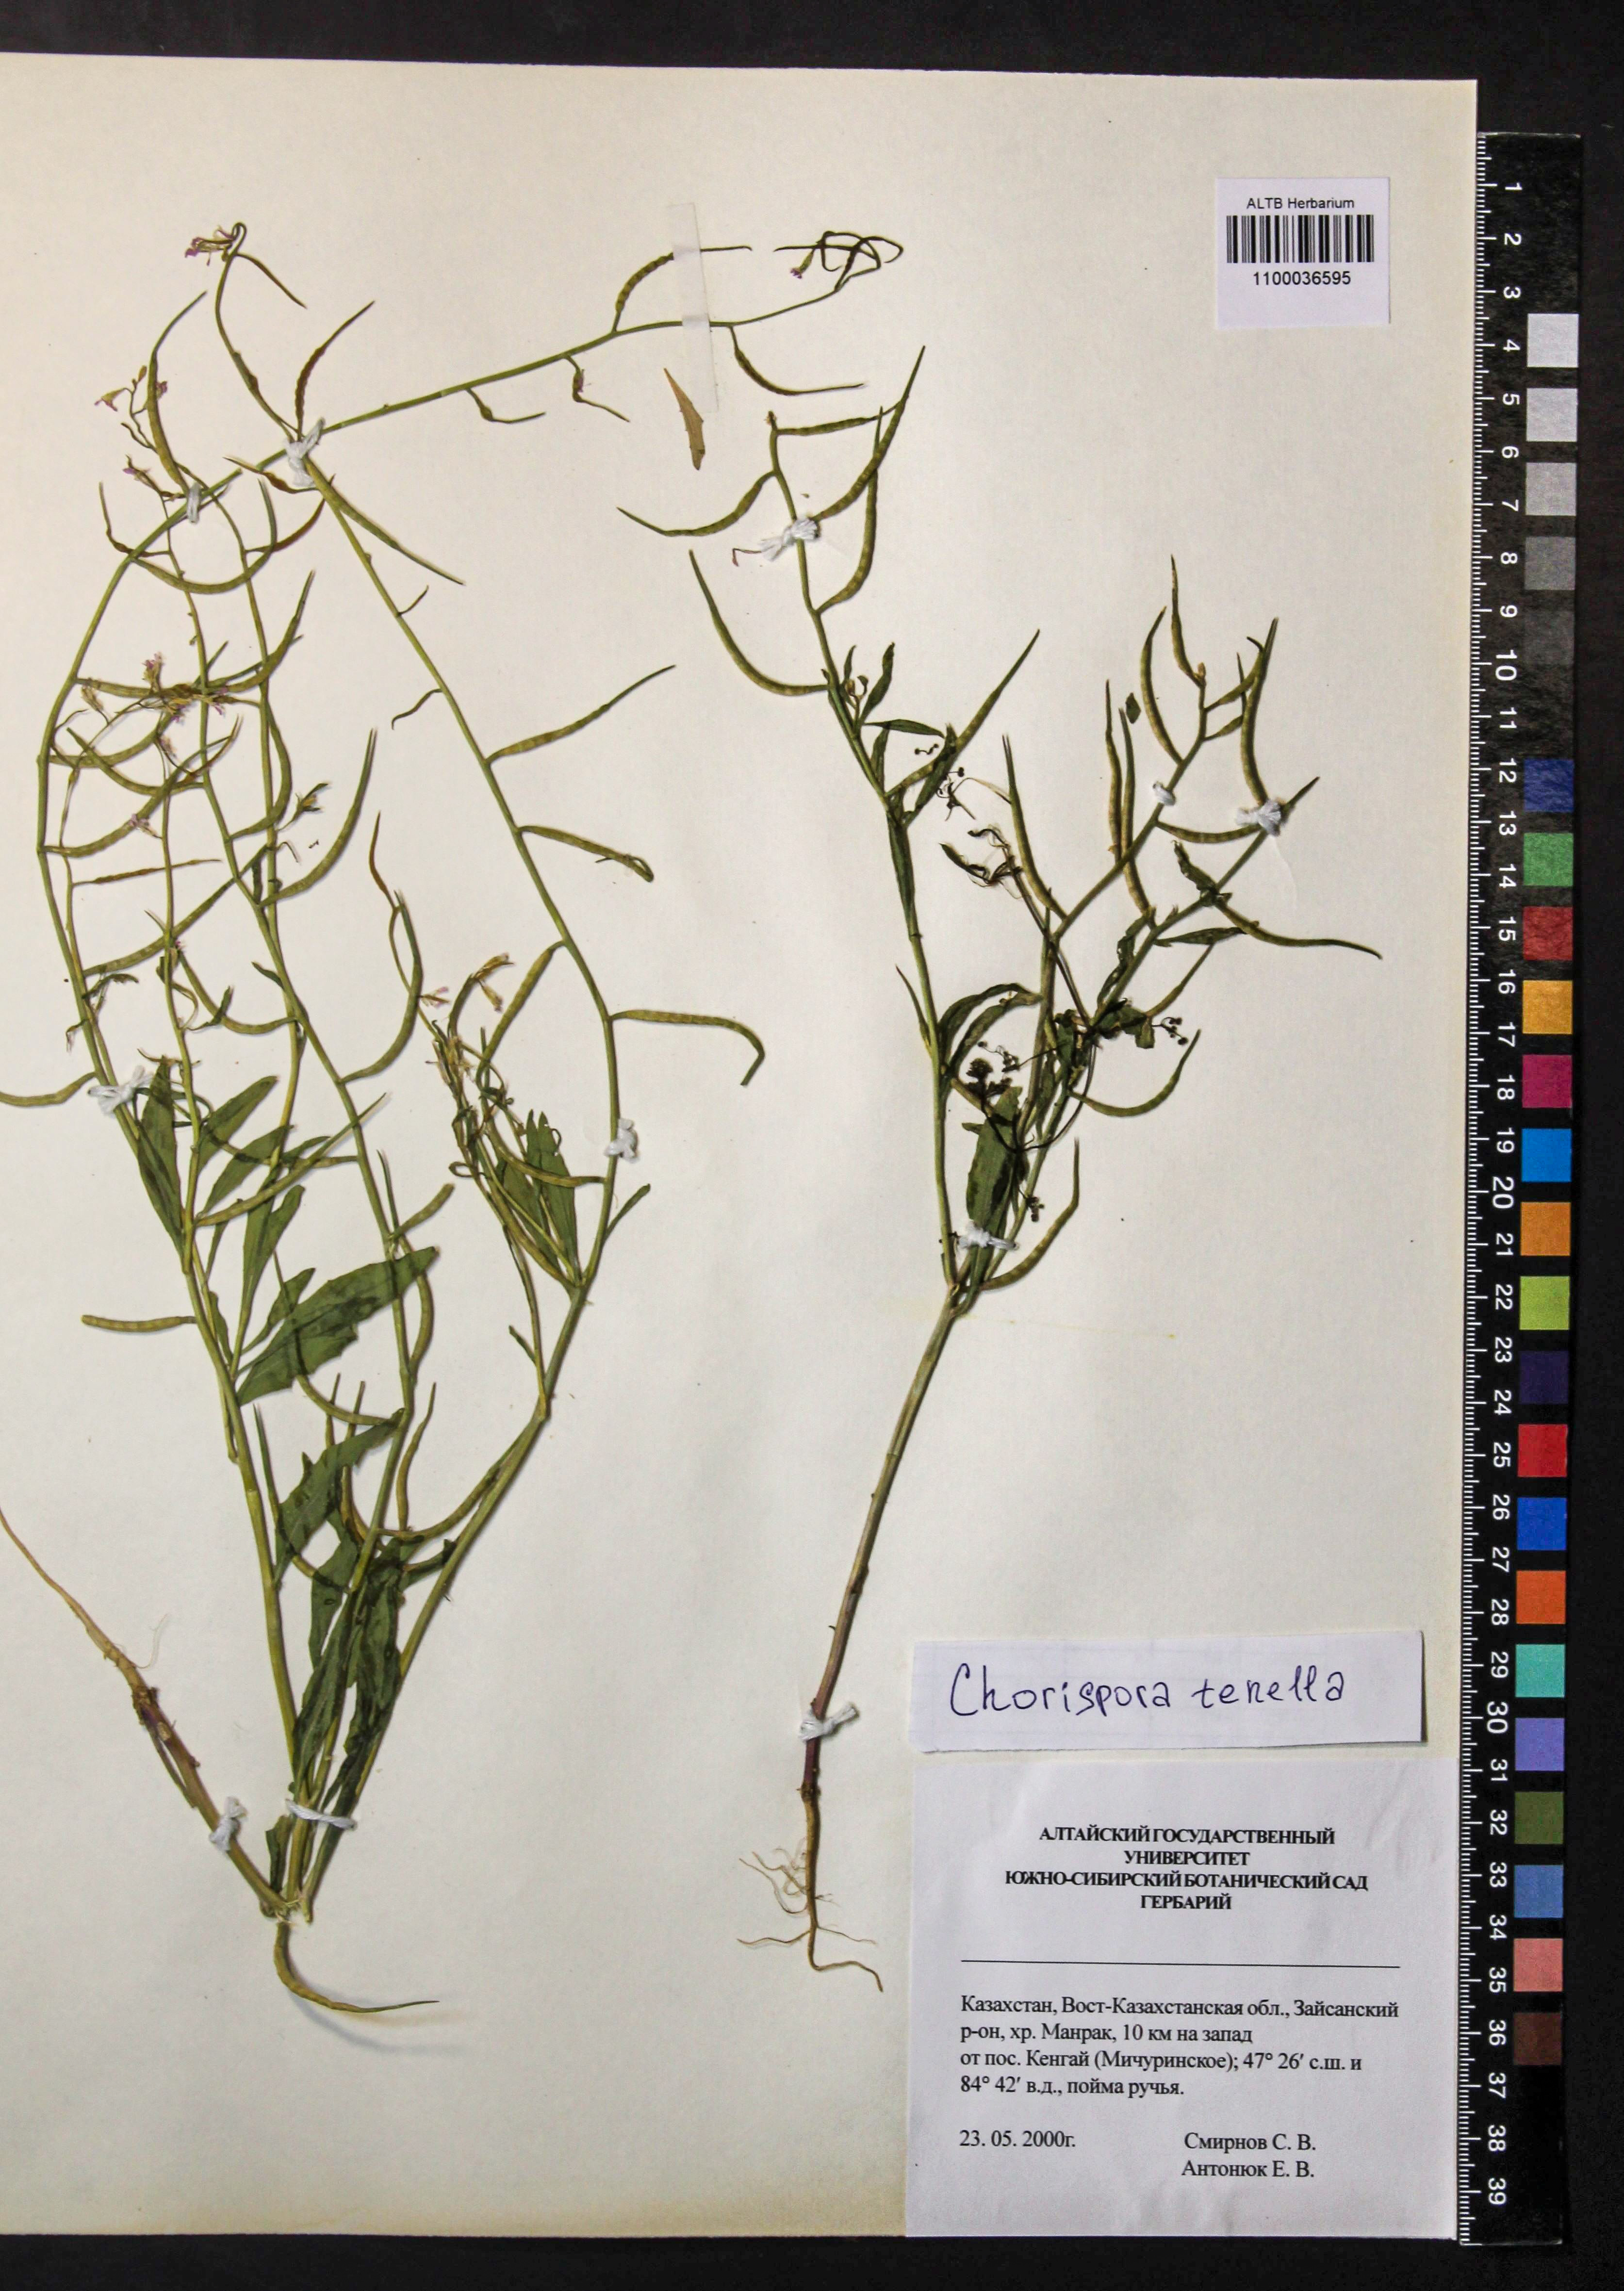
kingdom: Plantae
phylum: Tracheophyta
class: Magnoliopsida
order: Brassicales
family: Brassicaceae
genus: Chorispora
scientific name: Chorispora tenella
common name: Crossflower
